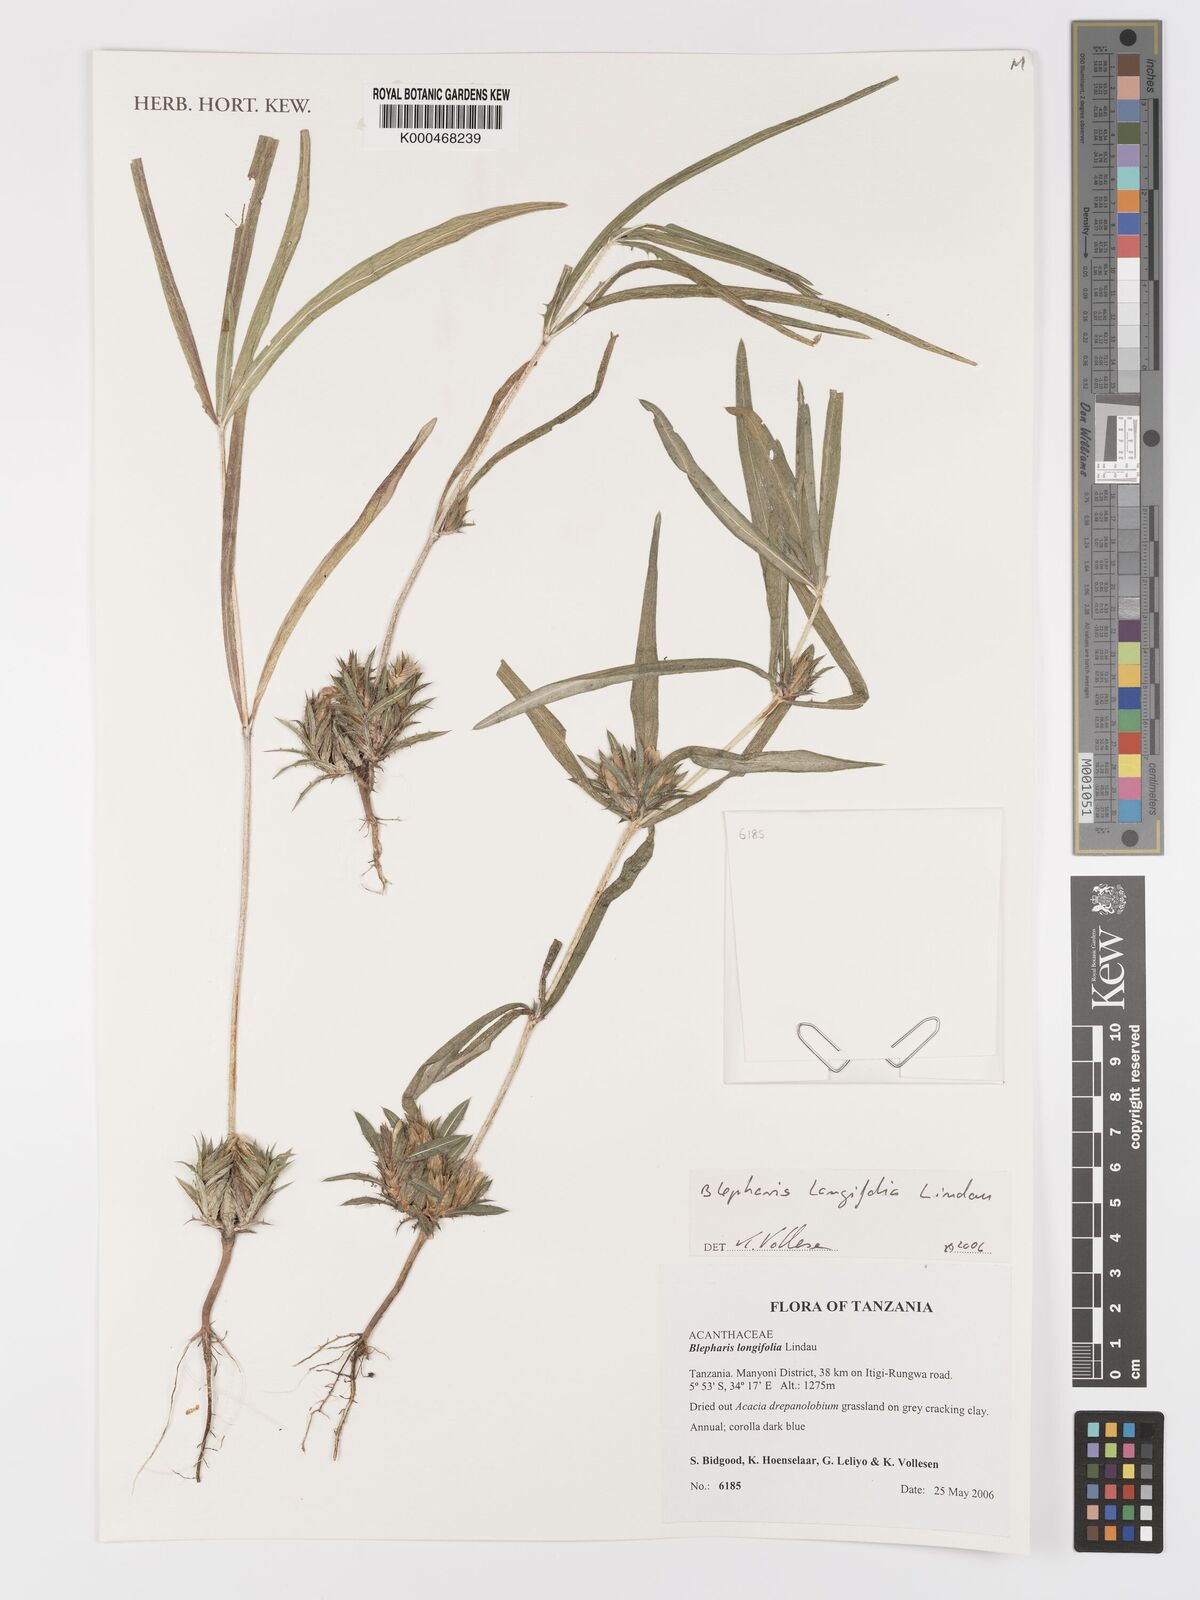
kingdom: Plantae
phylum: Tracheophyta
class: Magnoliopsida
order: Lamiales
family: Acanthaceae
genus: Blepharis
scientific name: Blepharis longifolia
